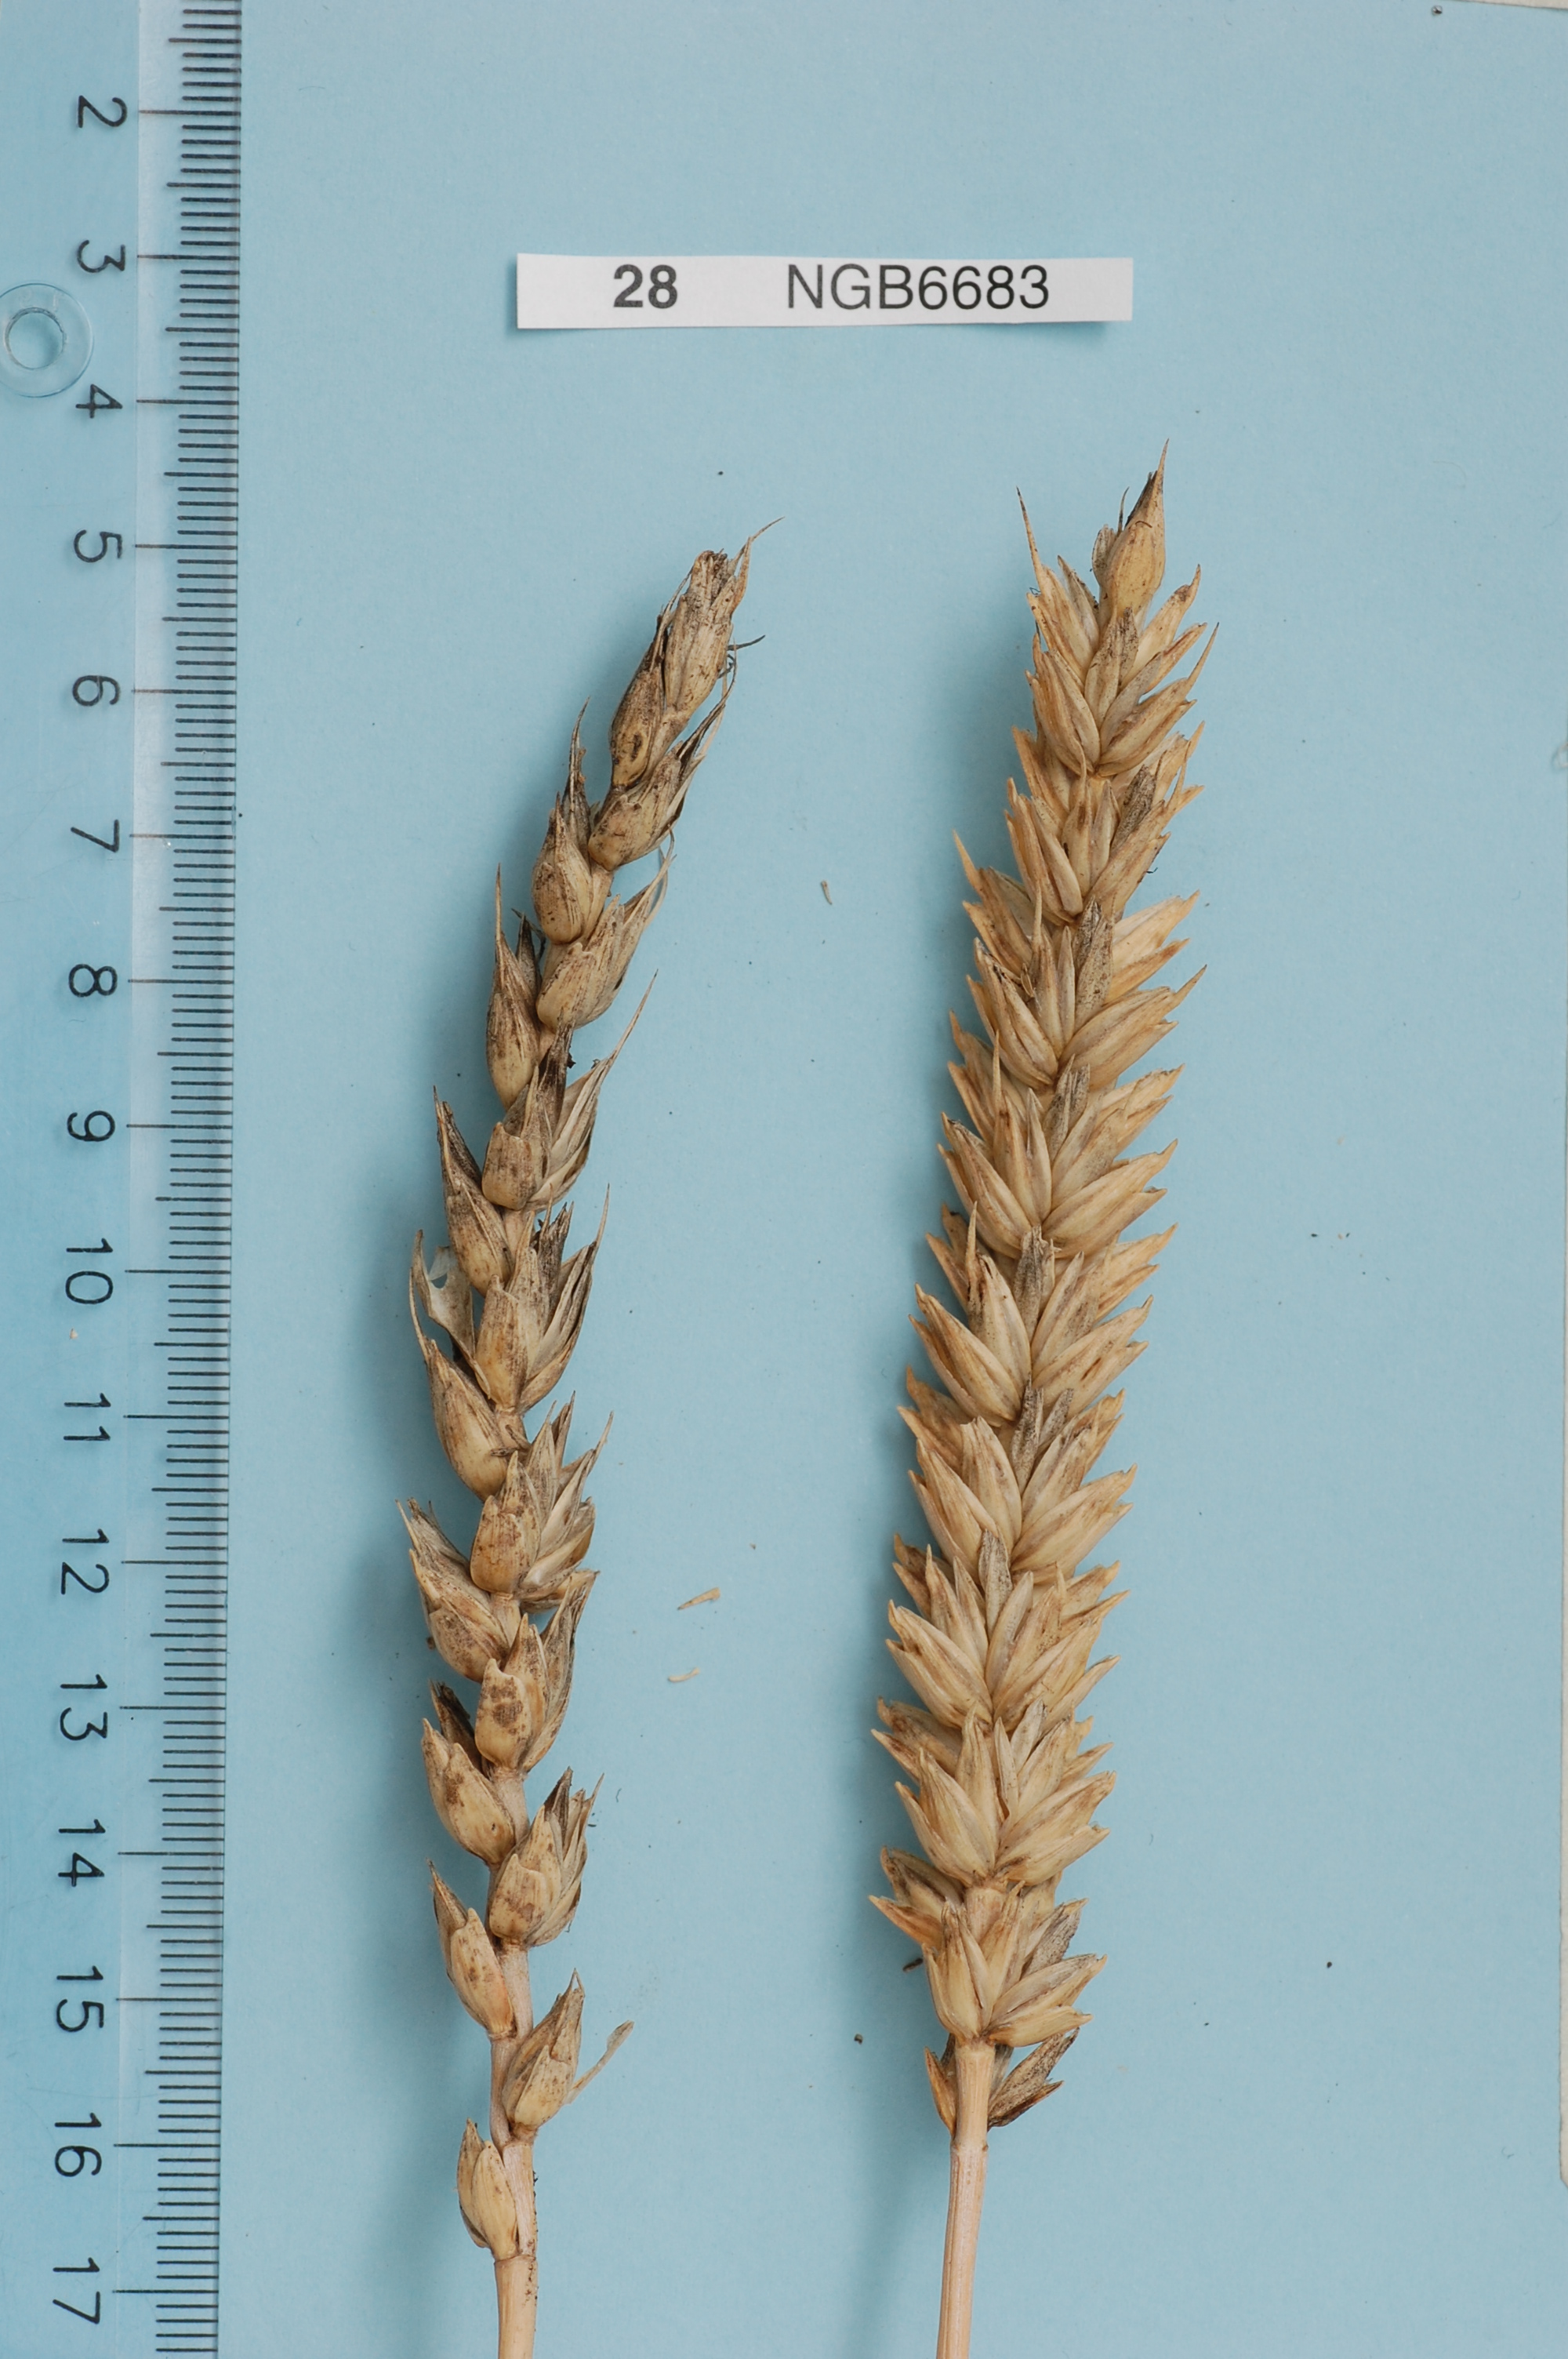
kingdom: Plantae
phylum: Tracheophyta
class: Liliopsida
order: Poales
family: Poaceae
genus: Triticum
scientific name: Triticum aestivum
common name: Common wheat
